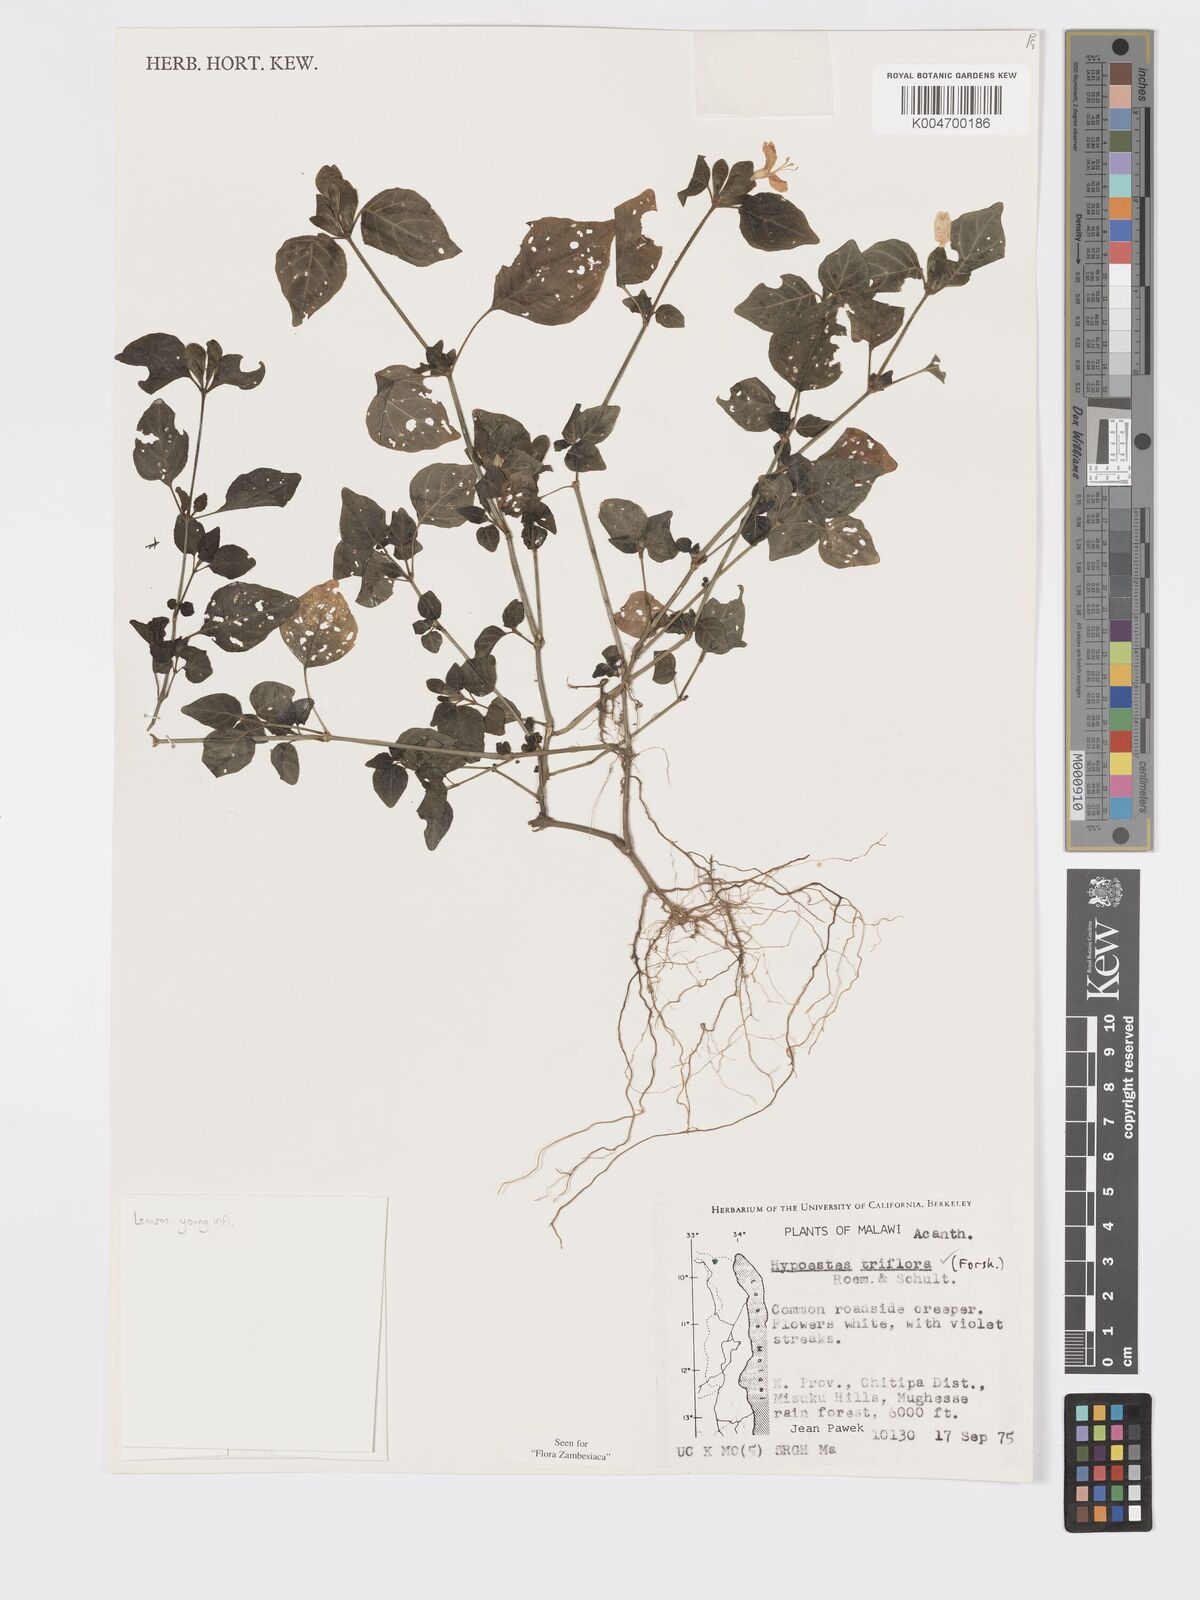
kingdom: Plantae
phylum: Tracheophyta
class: Magnoliopsida
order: Lamiales
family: Acanthaceae
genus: Hypoestes
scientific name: Hypoestes triflora
